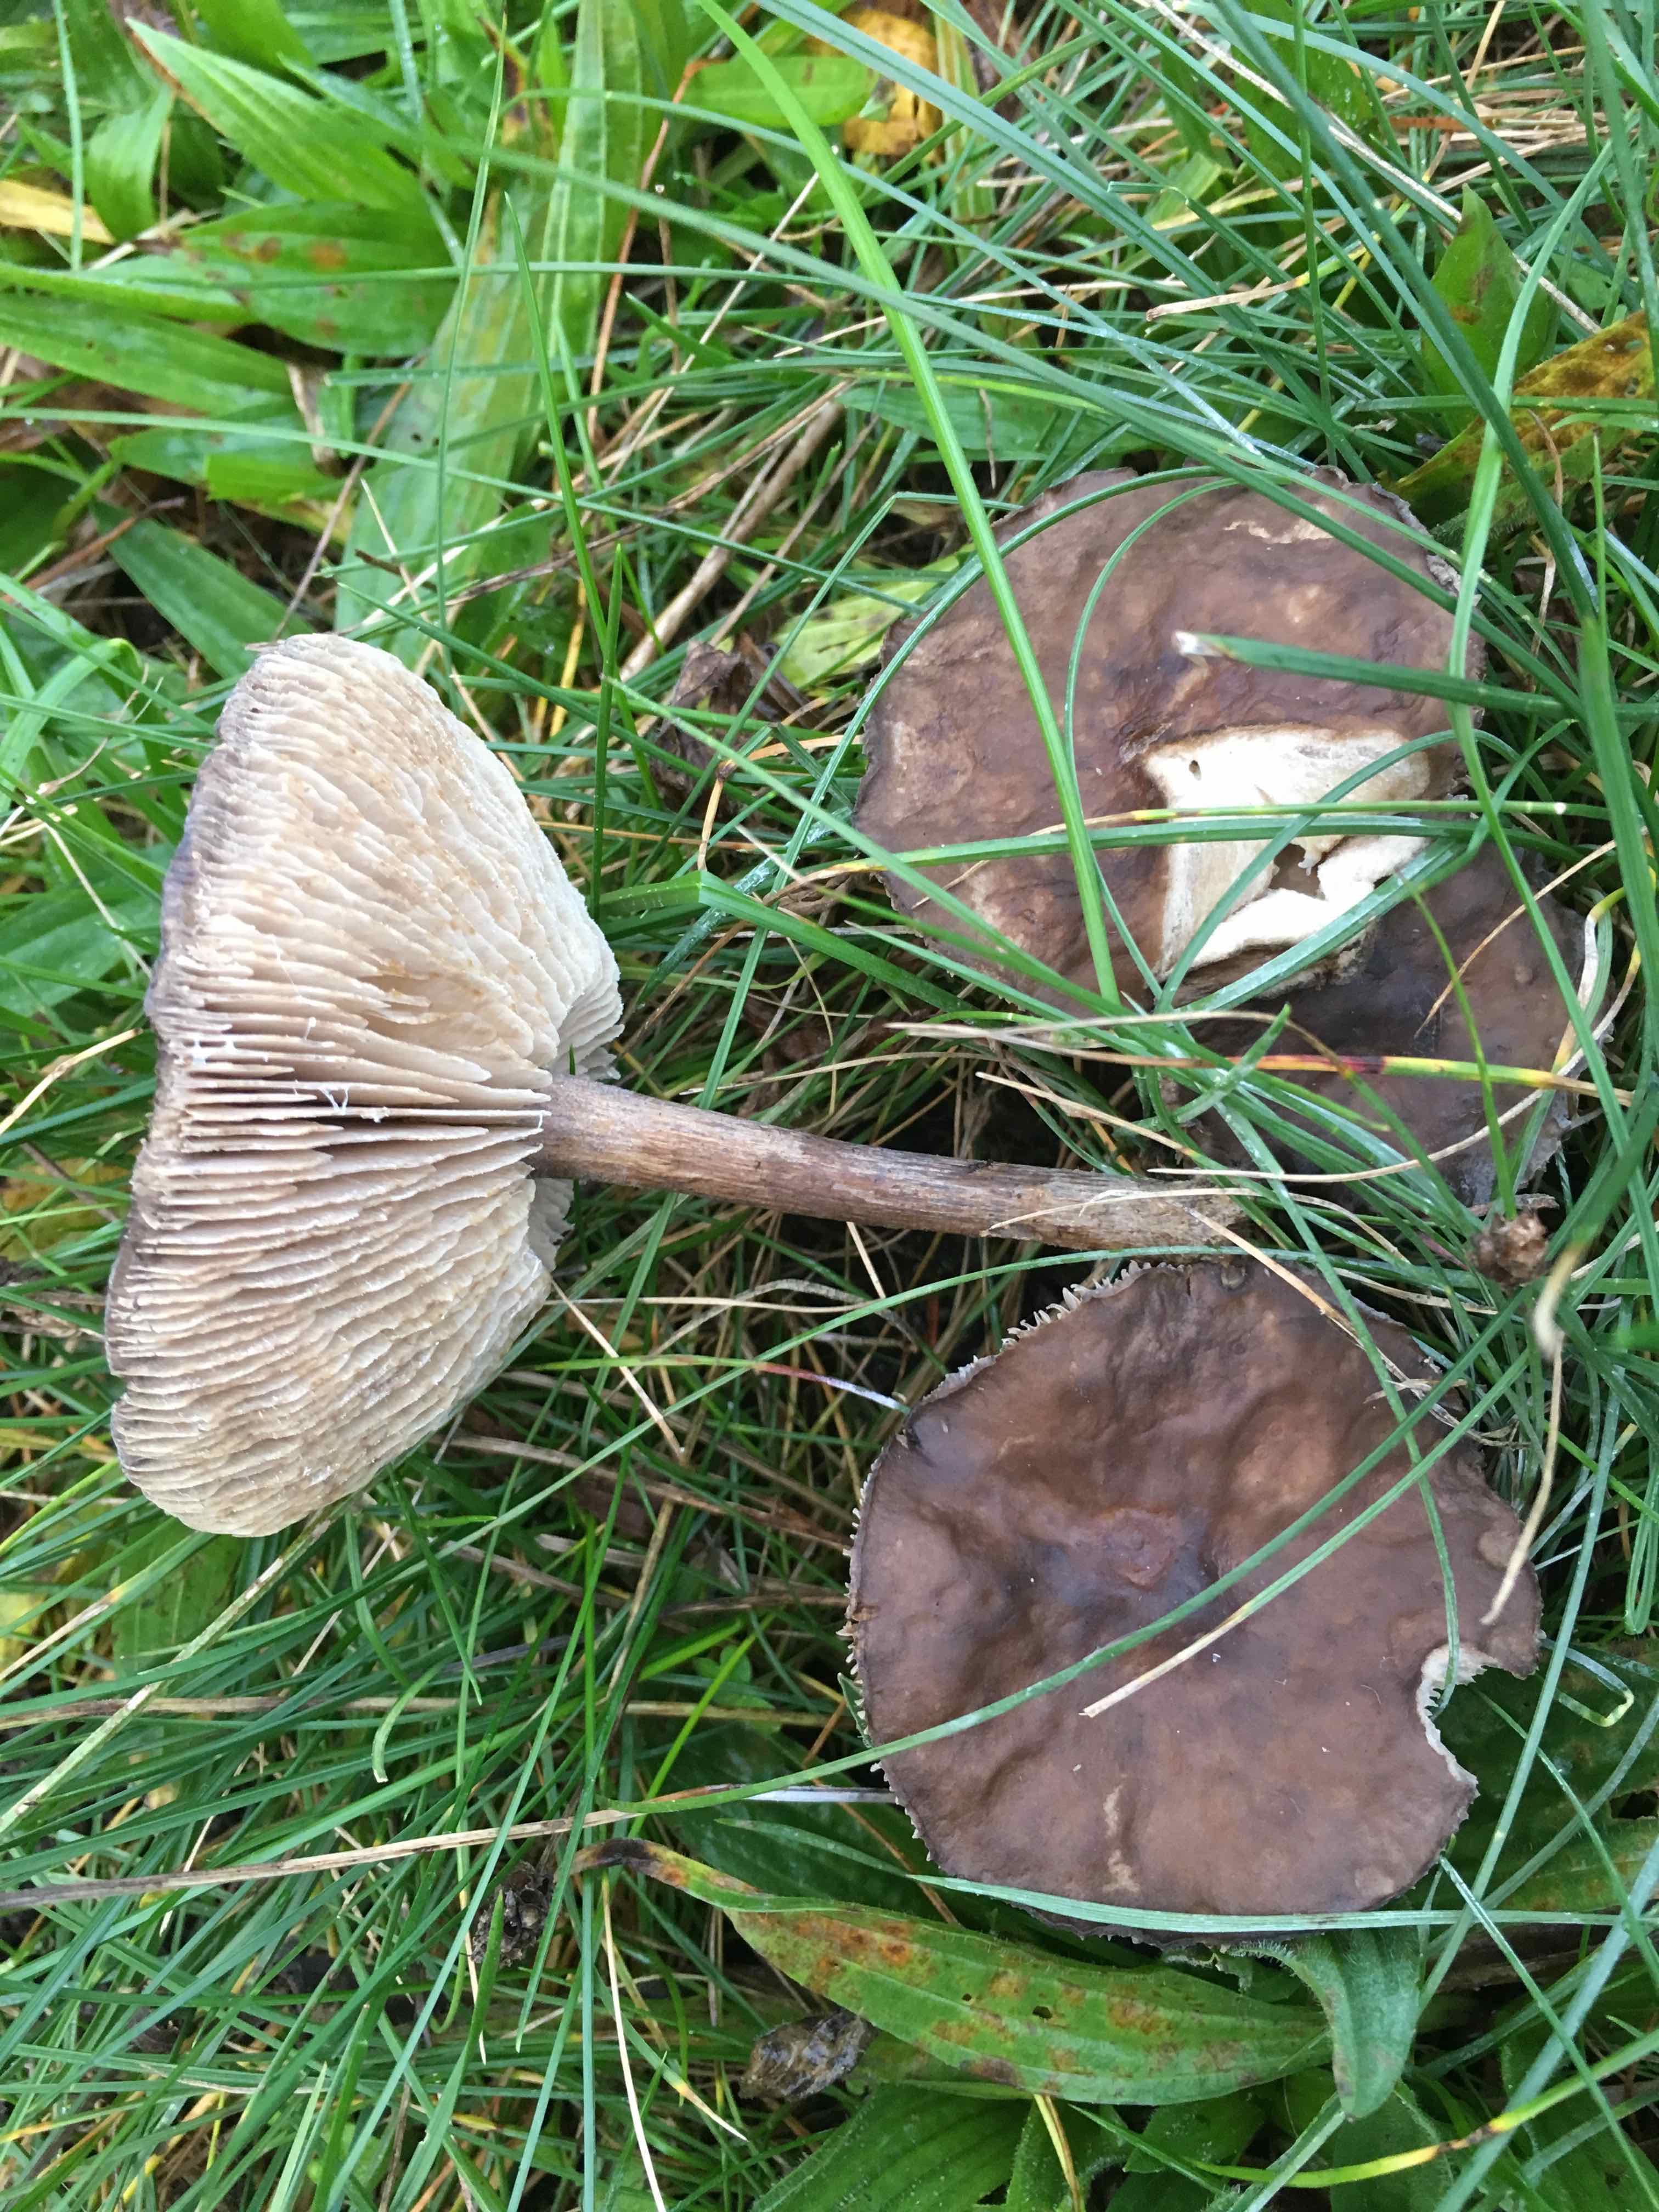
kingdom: Fungi
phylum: Basidiomycota
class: Agaricomycetes
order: Agaricales
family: Tricholomataceae
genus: Melanoleuca
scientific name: Melanoleuca
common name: munkehat
